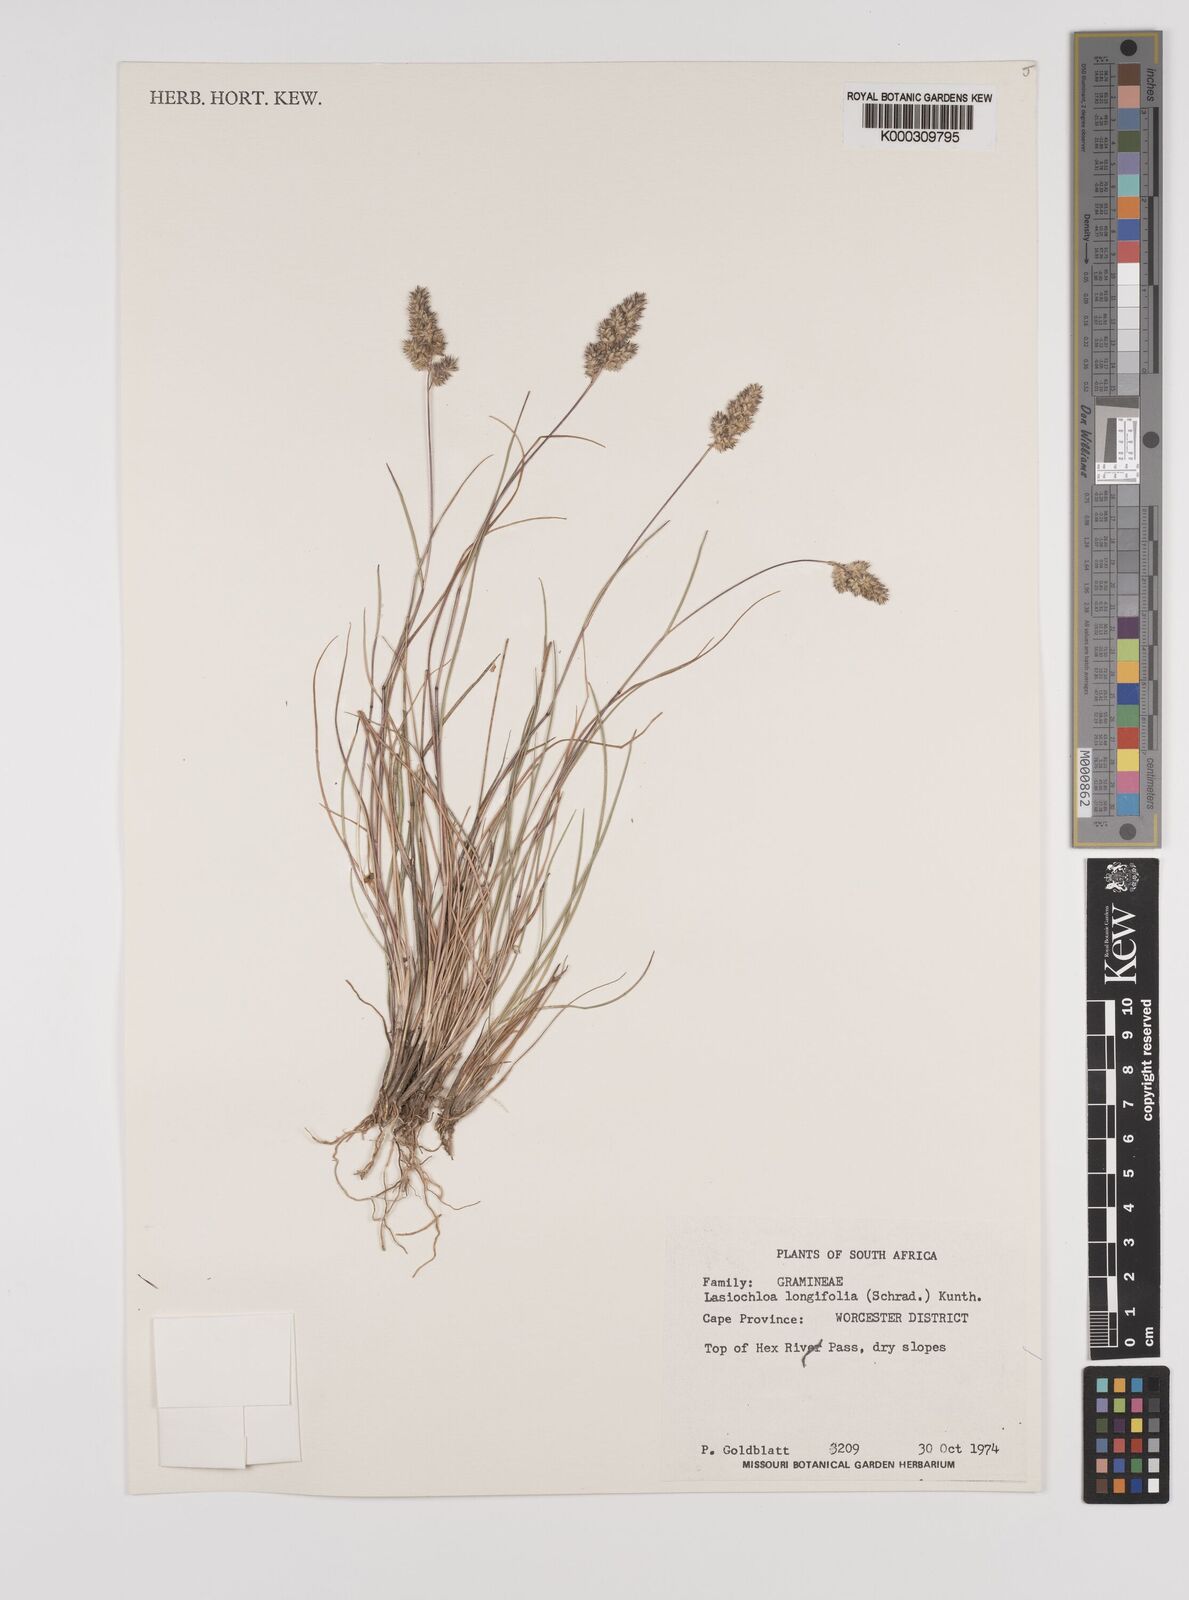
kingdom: Plantae
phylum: Tracheophyta
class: Liliopsida
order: Poales
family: Poaceae
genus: Tribolium
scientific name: Tribolium hispidum
